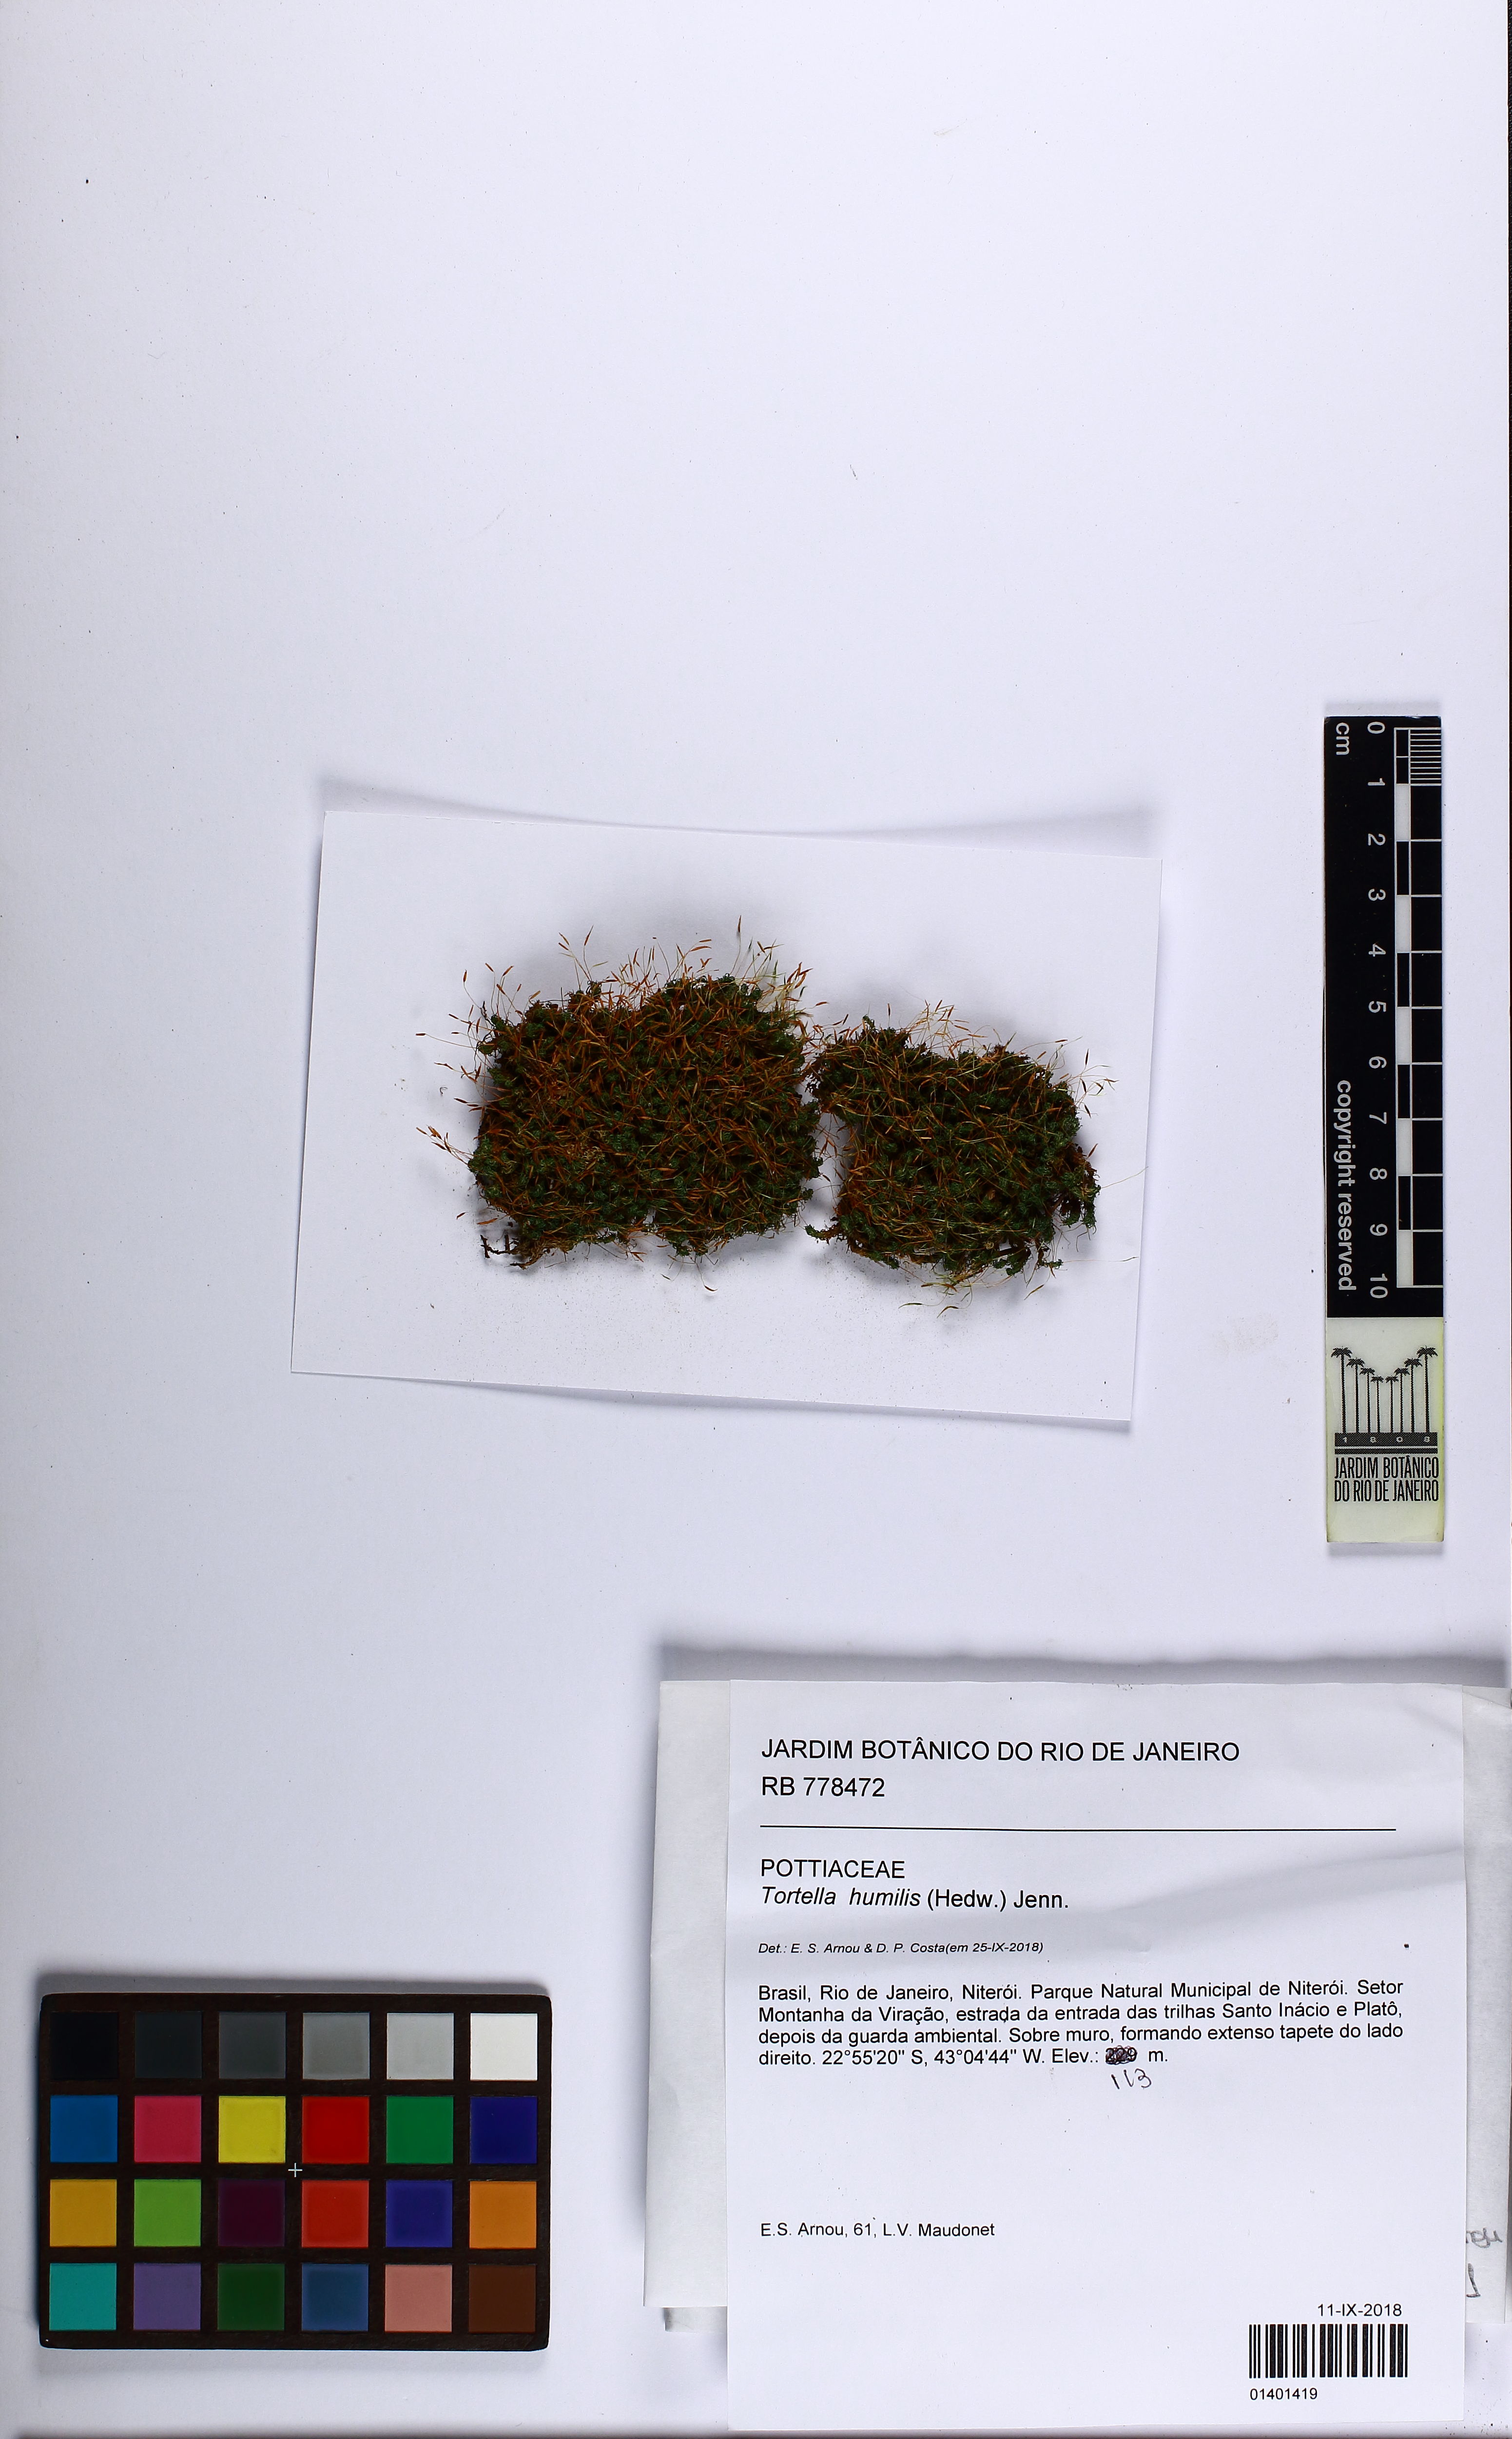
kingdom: Plantae
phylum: Bryophyta
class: Bryopsida
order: Pottiales
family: Pottiaceae
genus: Tortella
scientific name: Tortella humilis
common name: Small twisted moss
